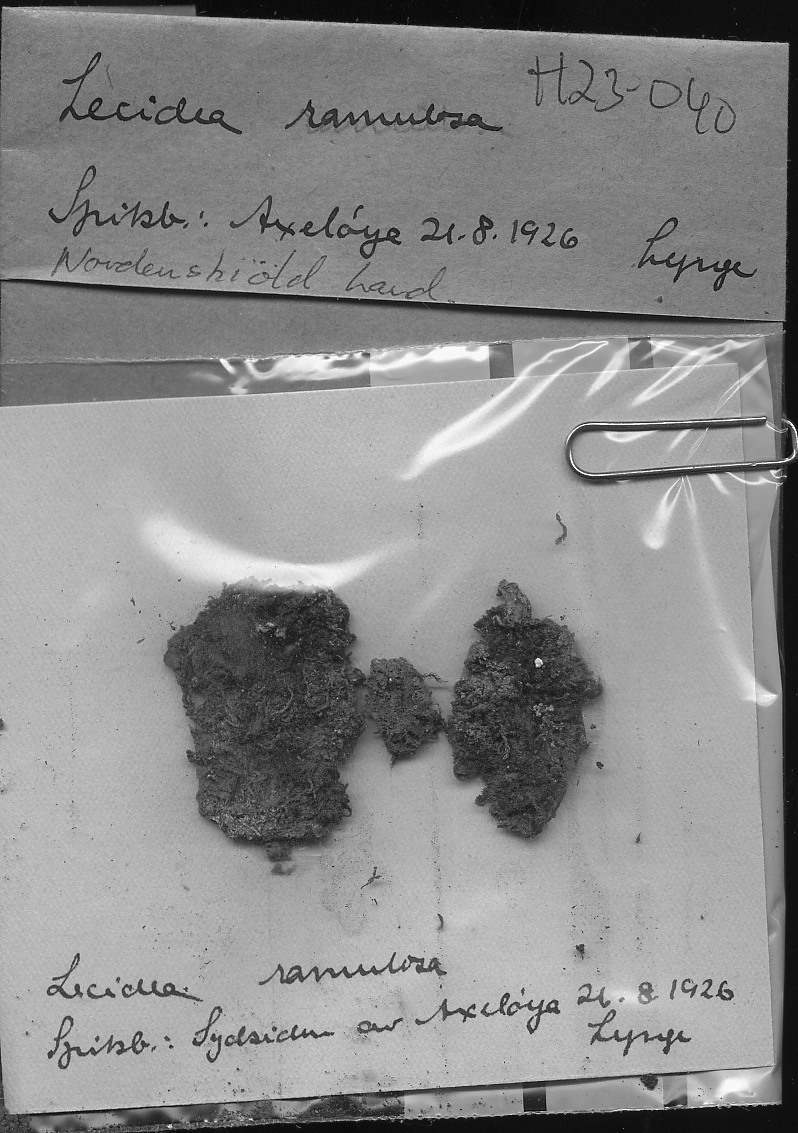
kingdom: Fungi
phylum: Ascomycota
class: Lecanoromycetes
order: Lecideales
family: Lecideaceae
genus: Lecidea
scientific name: Lecidea ramulosa
